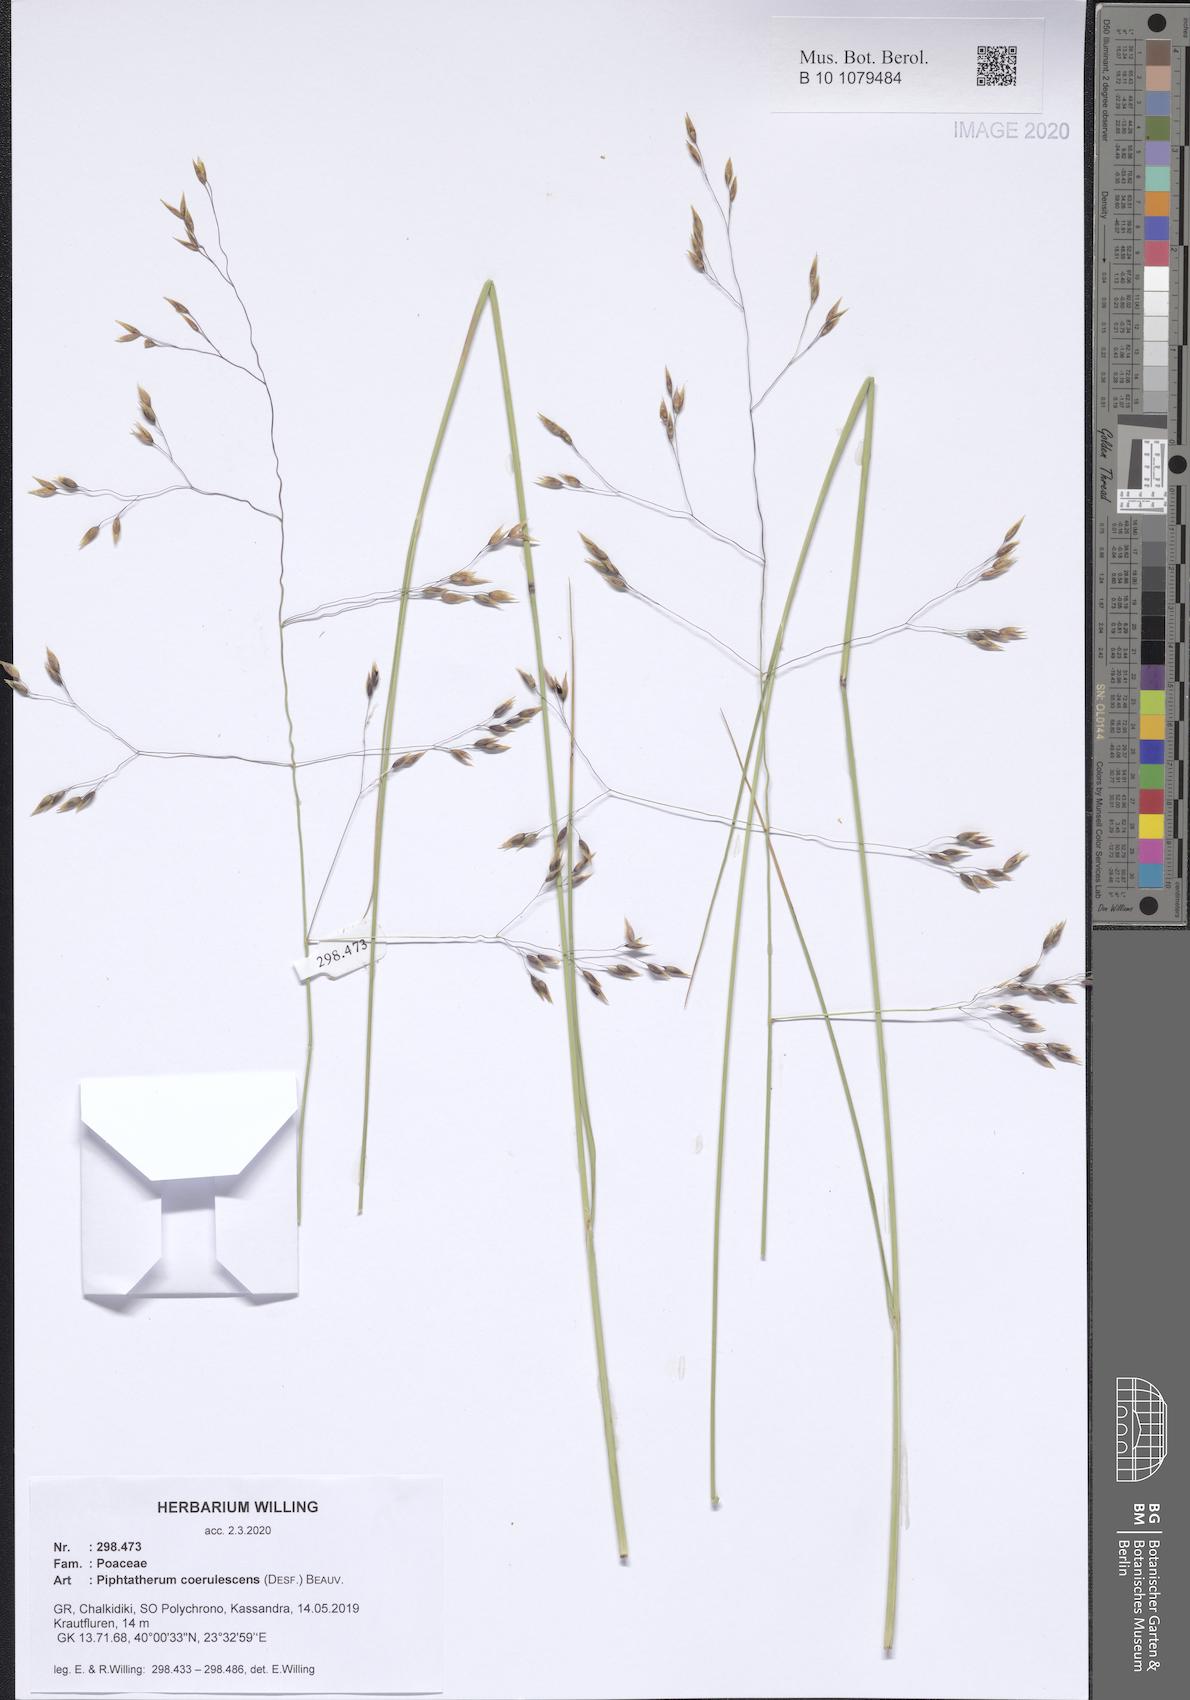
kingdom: Plantae
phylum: Tracheophyta
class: Liliopsida
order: Poales
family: Poaceae
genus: Piptatherum
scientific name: Piptatherum coerulescens
